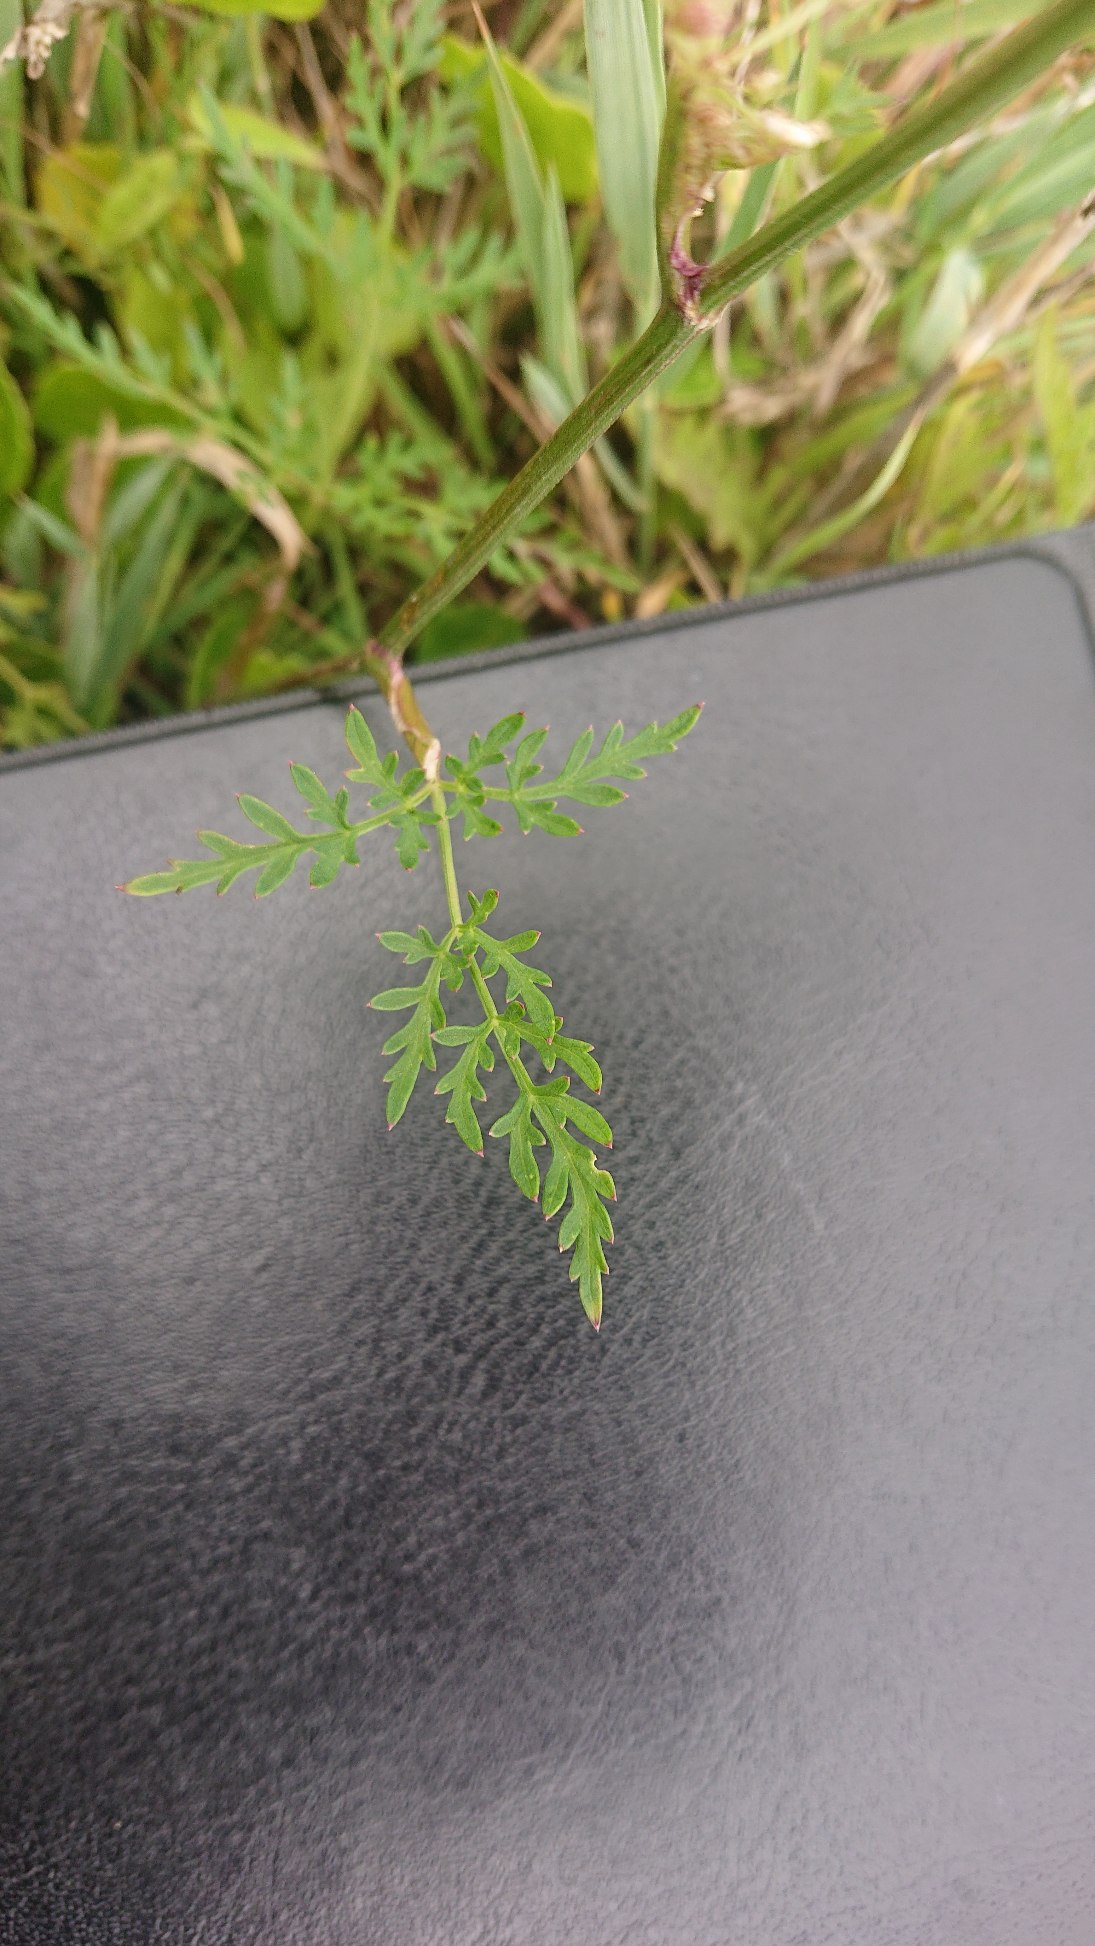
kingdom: Plantae
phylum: Tracheophyta
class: Magnoliopsida
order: Apiales
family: Apiaceae
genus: Thysselinum
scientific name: Thysselinum palustre
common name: Kær-svovlrod
